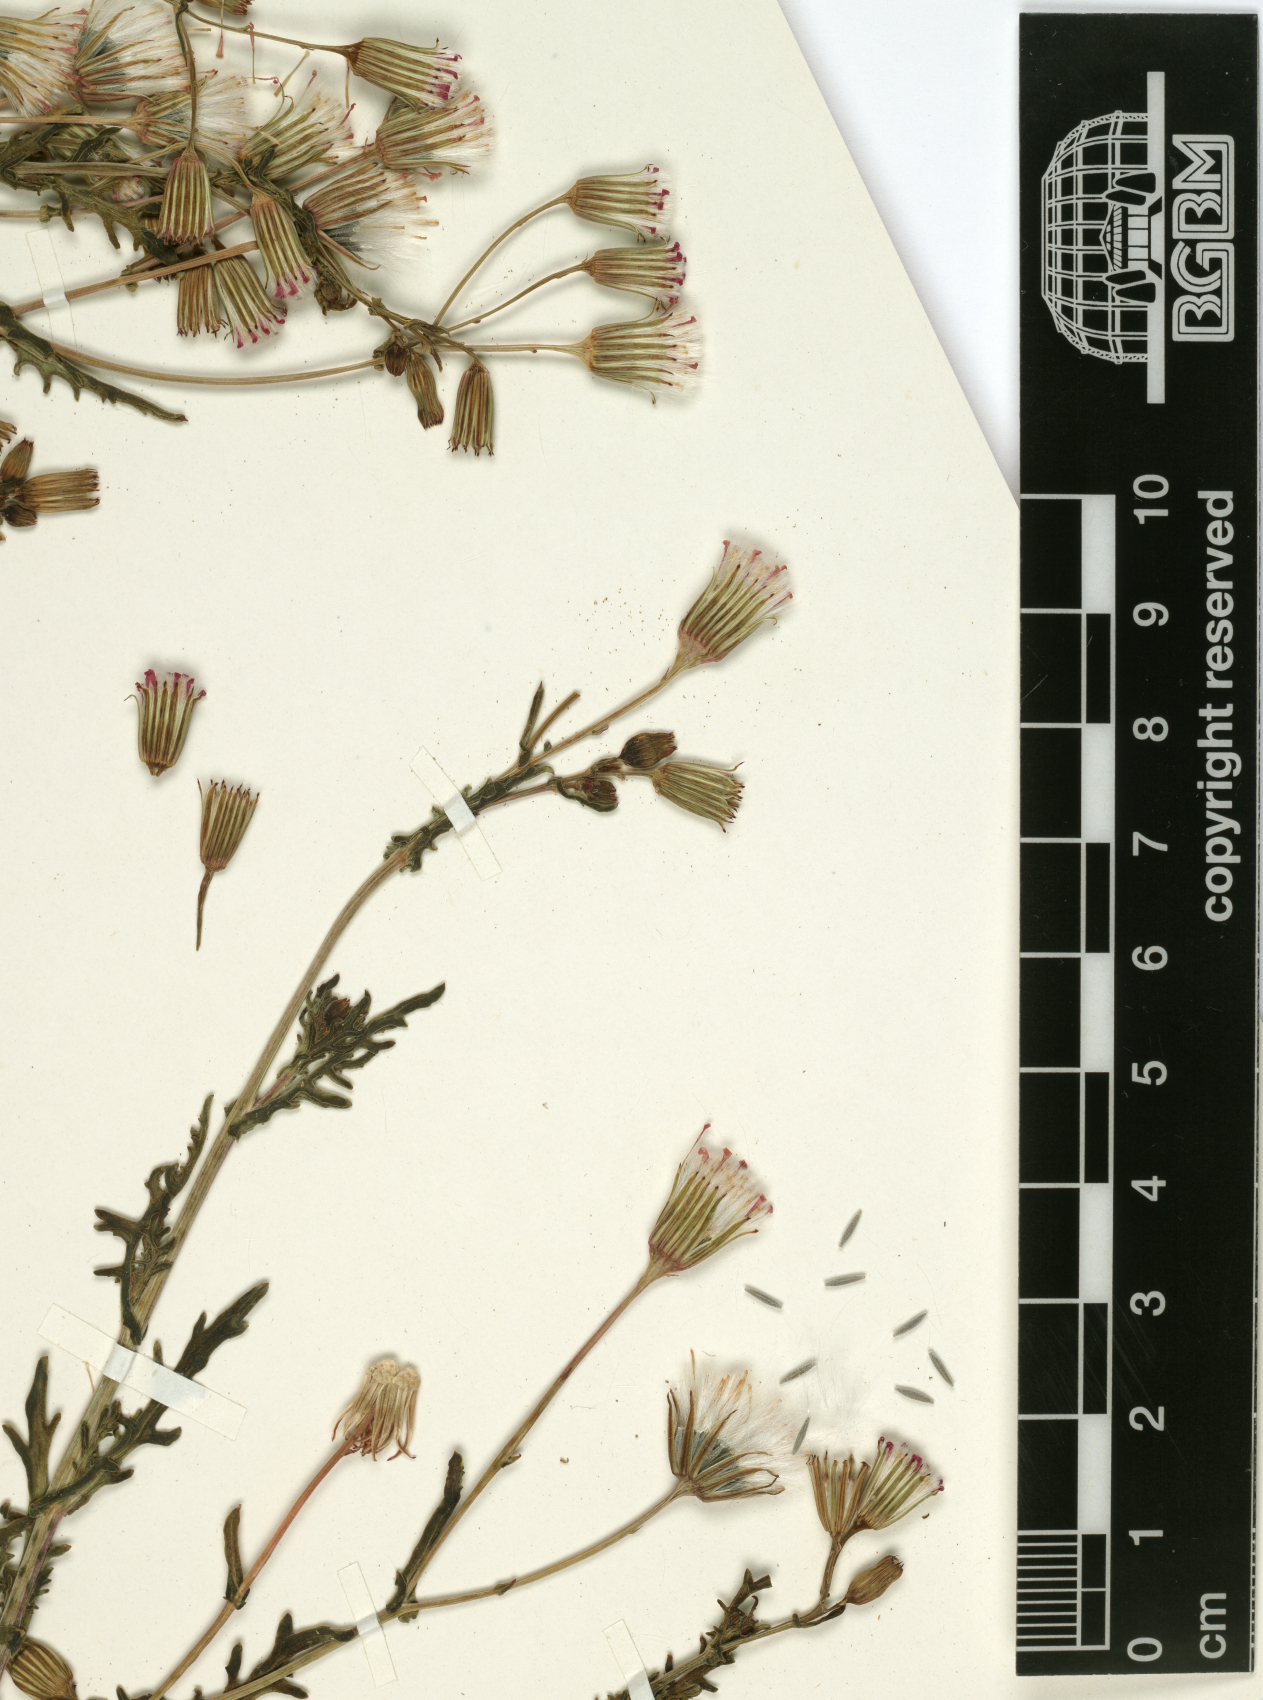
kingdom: Plantae
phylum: Tracheophyta
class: Magnoliopsida
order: Asterales
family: Asteraceae
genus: Senecio
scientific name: Senecio hoggariensis
